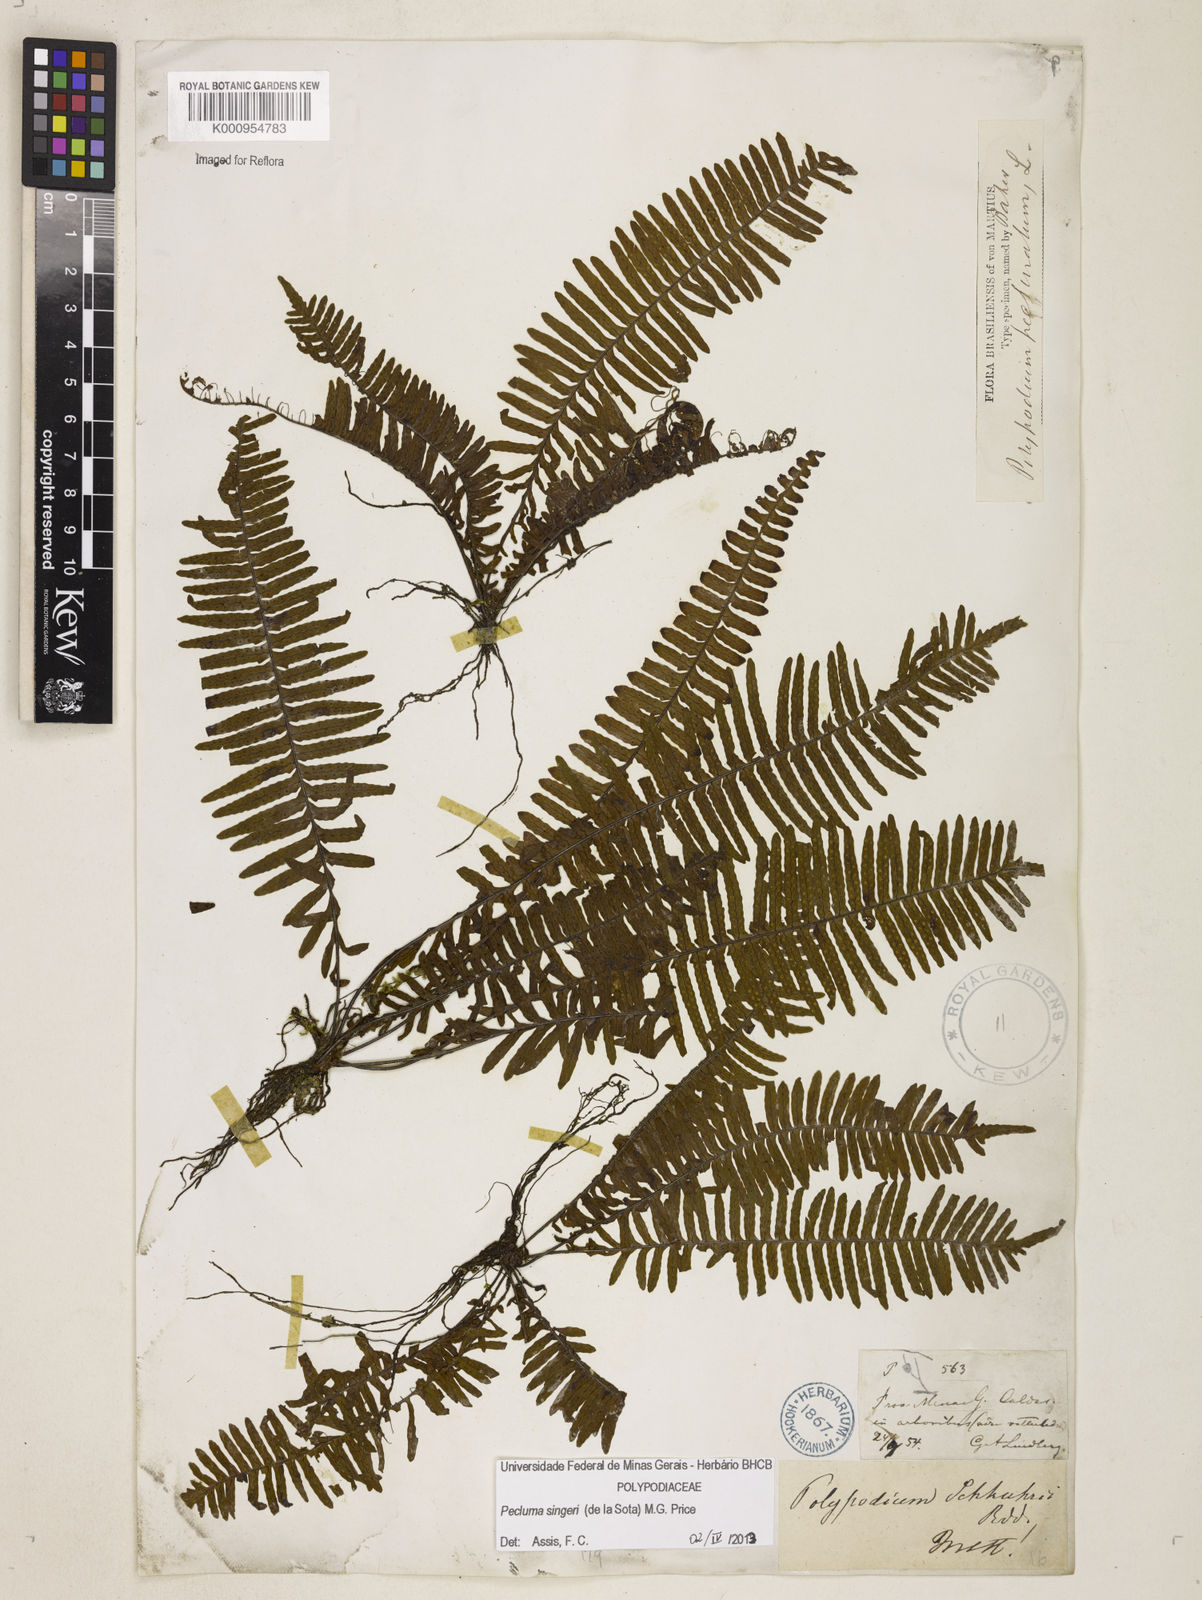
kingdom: Plantae
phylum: Tracheophyta
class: Polypodiopsida
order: Polypodiales
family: Polypodiaceae
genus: Pecluma
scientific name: Pecluma singeri
